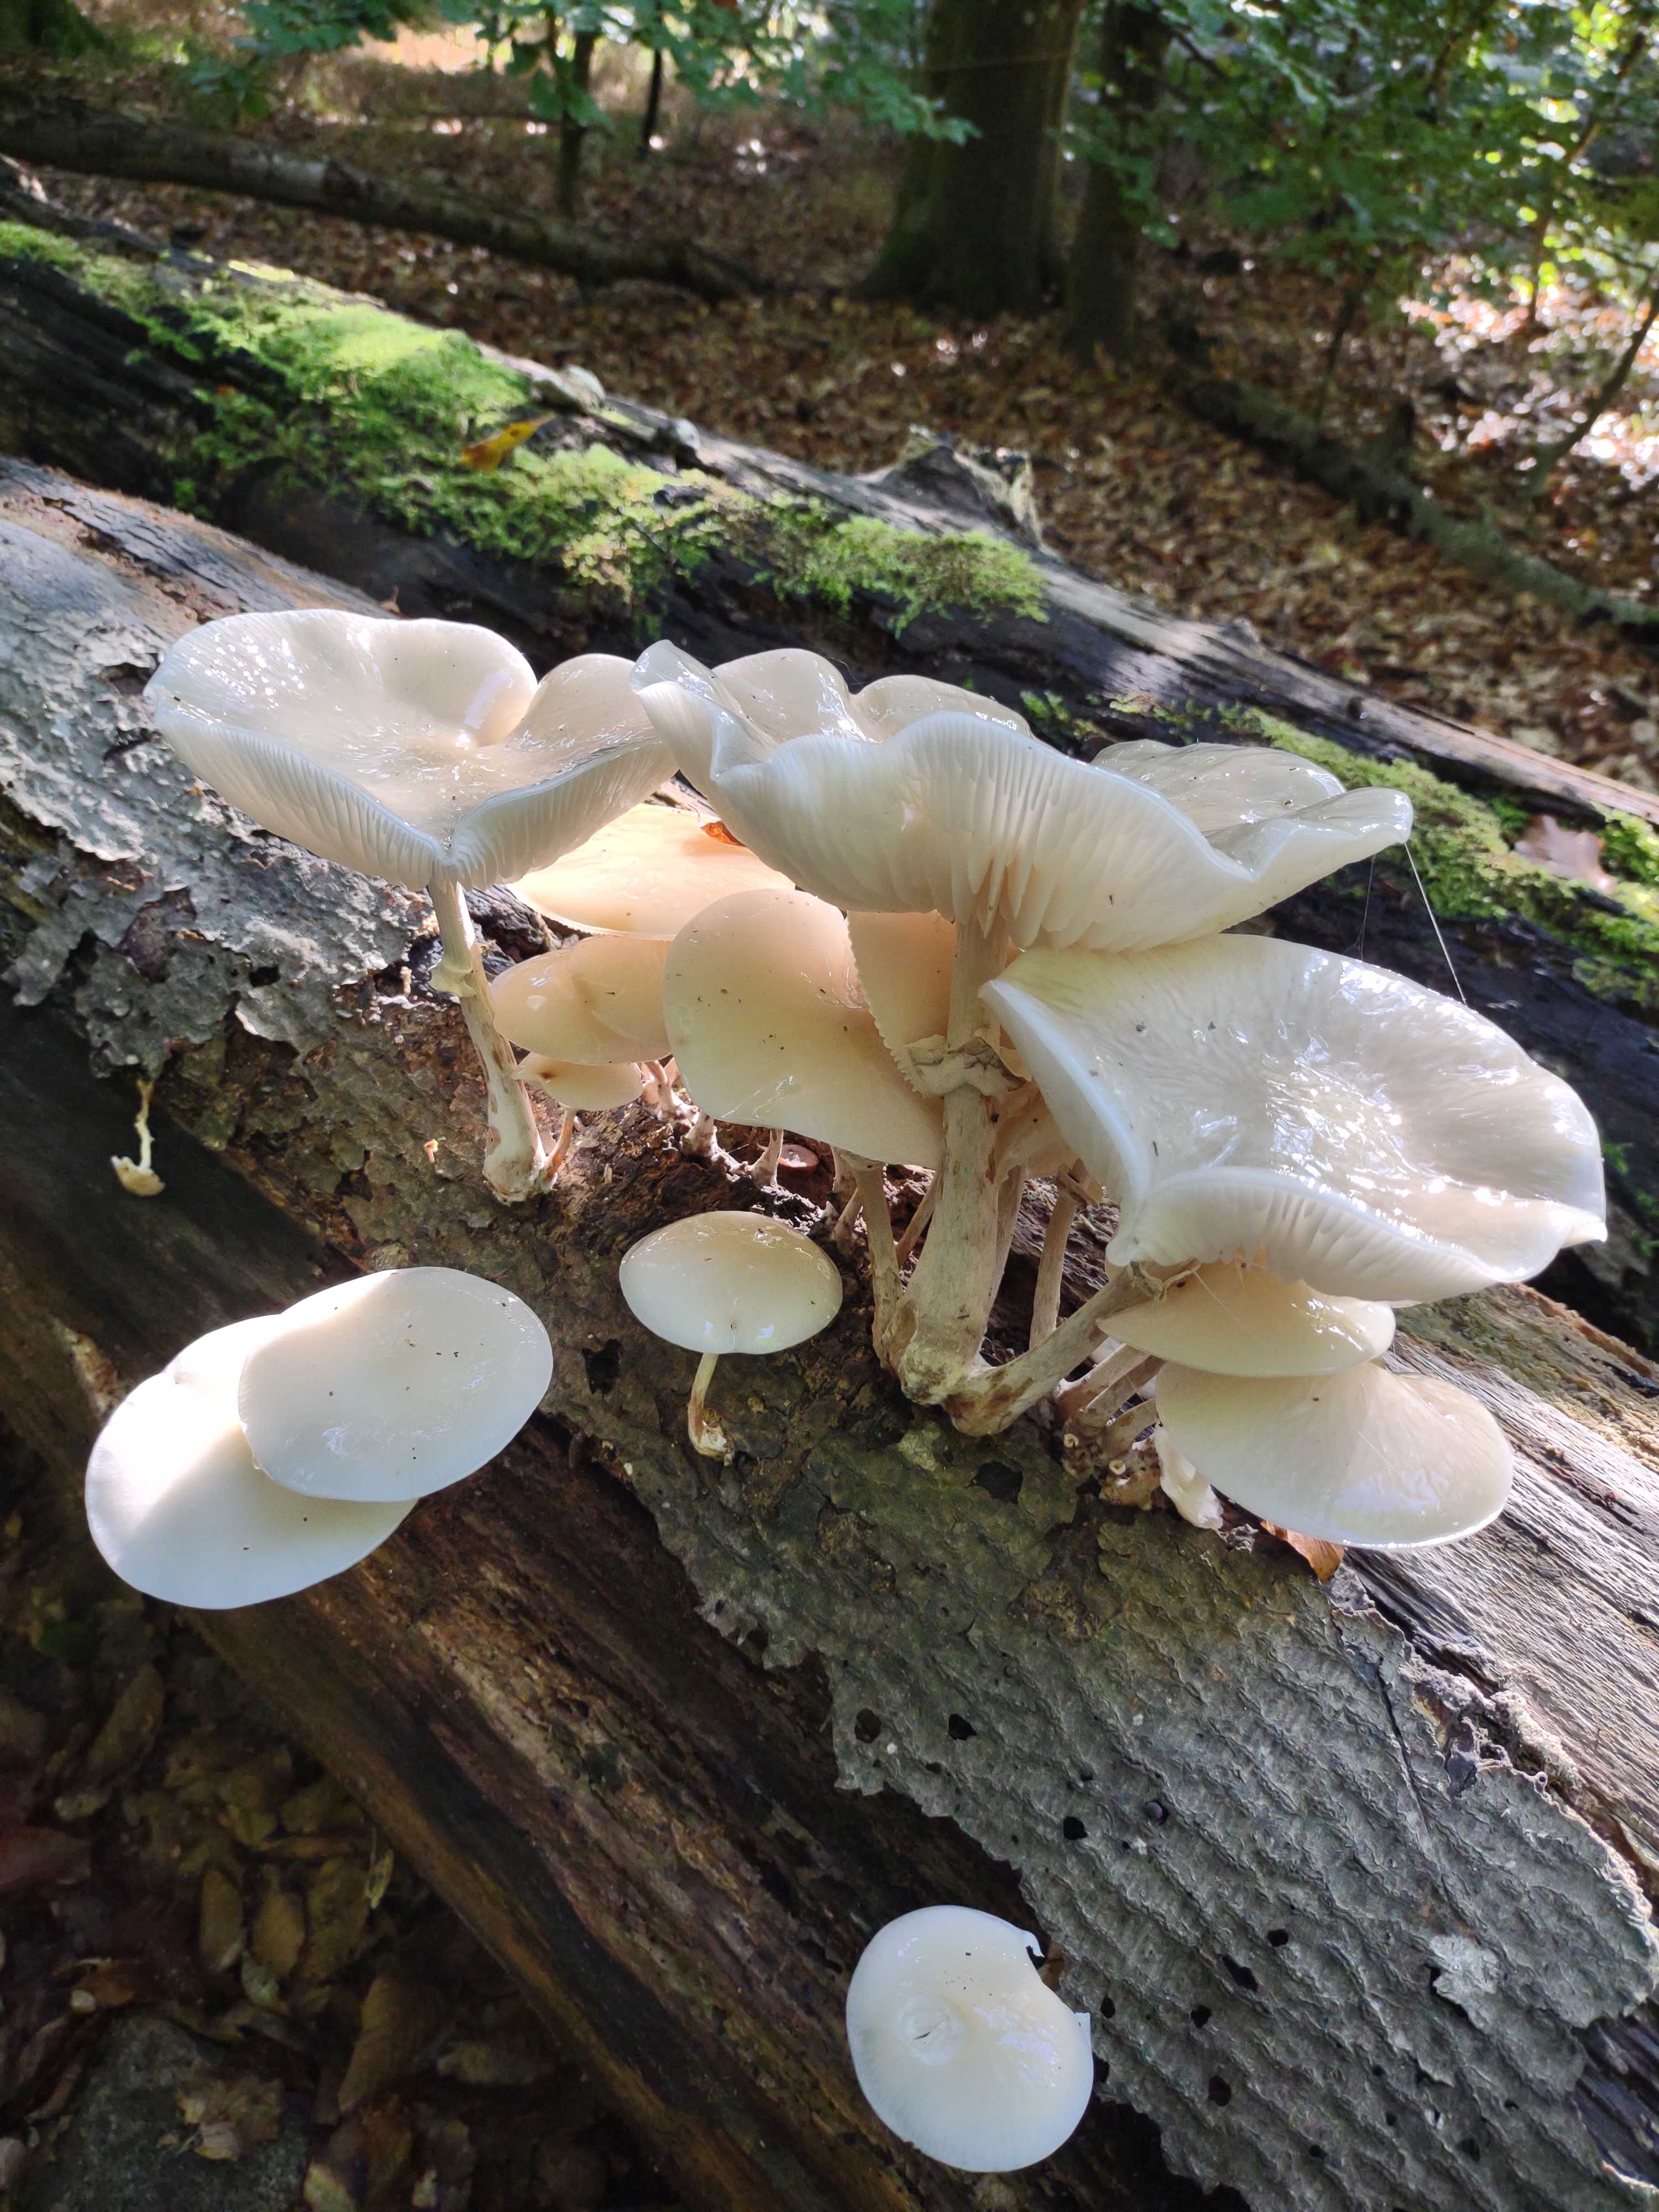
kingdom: Fungi
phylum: Basidiomycota
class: Agaricomycetes
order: Agaricales
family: Physalacriaceae
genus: Mucidula
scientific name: Mucidula mucida
